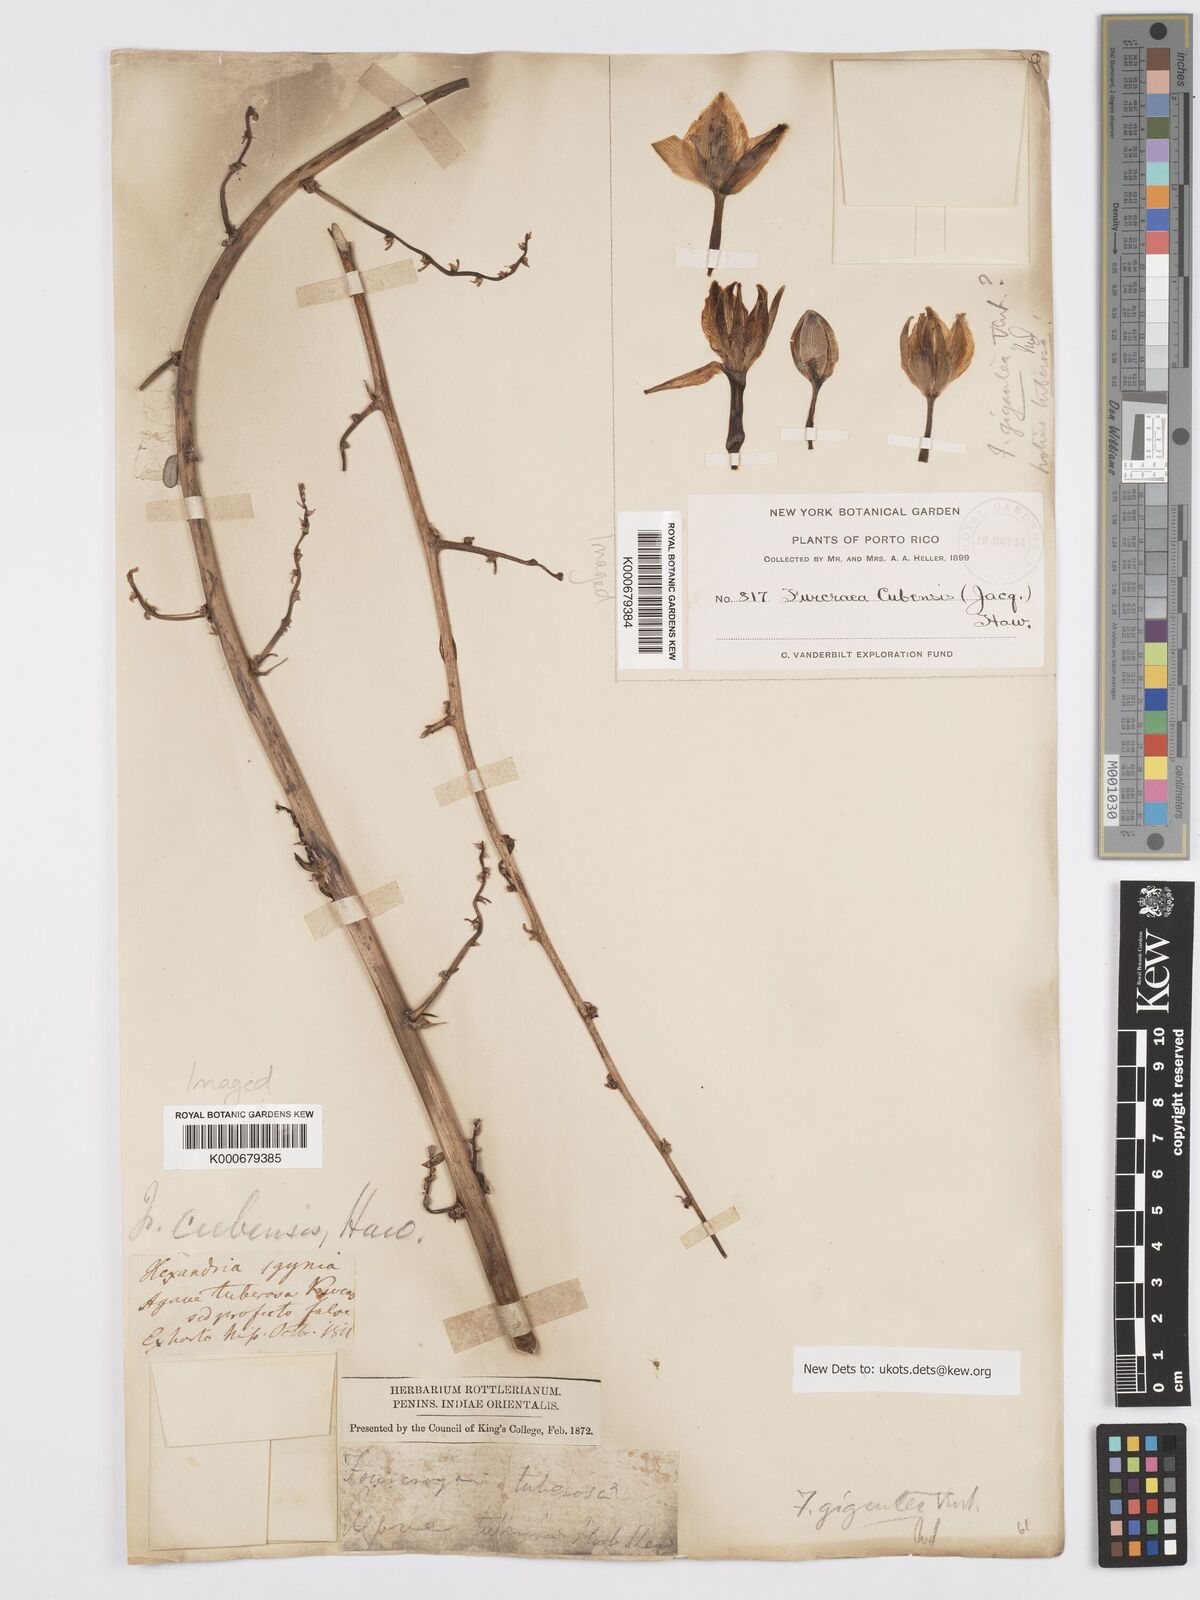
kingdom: Plantae
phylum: Tracheophyta
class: Liliopsida
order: Asparagales
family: Asparagaceae
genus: Furcraea
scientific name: Furcraea tuberosa
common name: Karata
